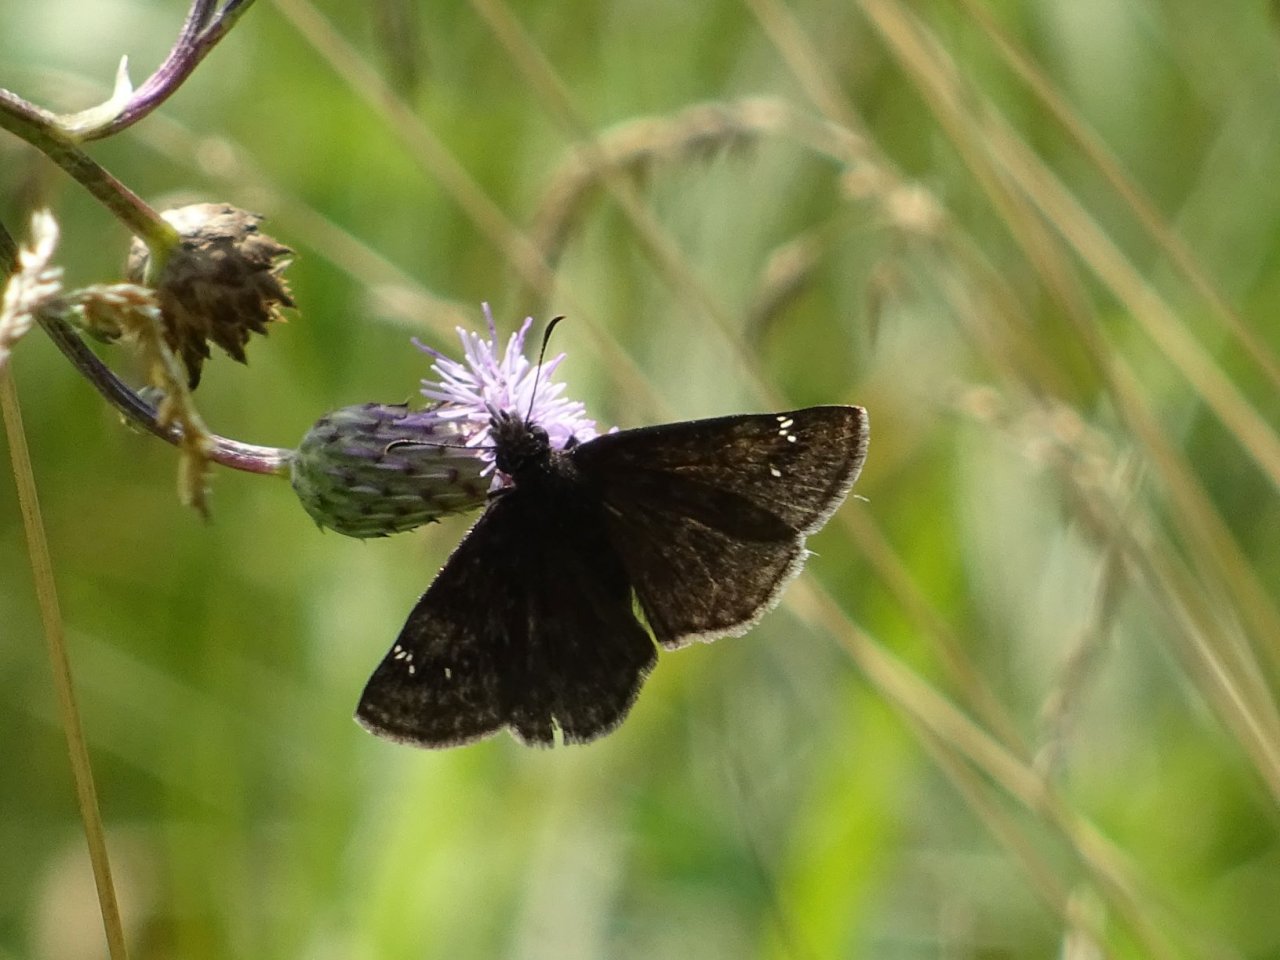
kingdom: Animalia
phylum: Arthropoda
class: Insecta
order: Lepidoptera
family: Hesperiidae
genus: Gesta
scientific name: Gesta
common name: Wild Indigo Duskywing
